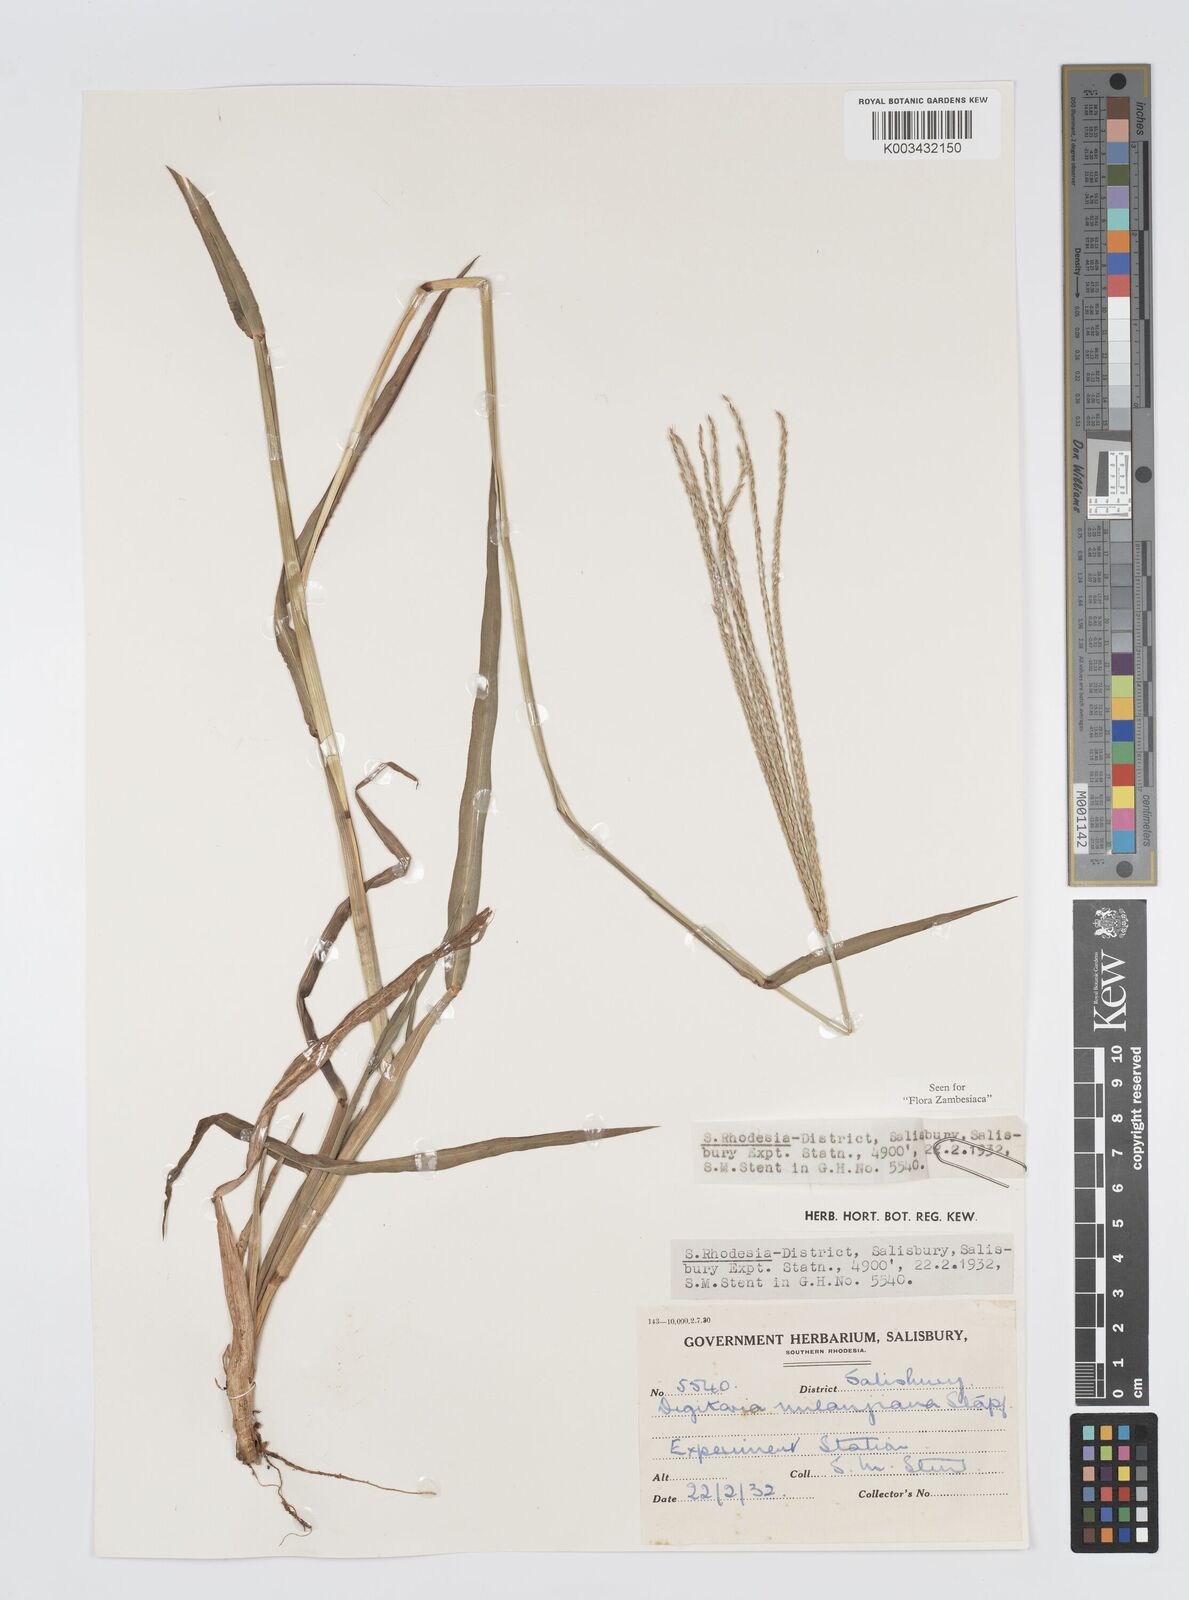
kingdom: Plantae
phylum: Tracheophyta
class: Liliopsida
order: Poales
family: Poaceae
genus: Digitaria
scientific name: Digitaria milanjiana
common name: Madagascar crabgrass
